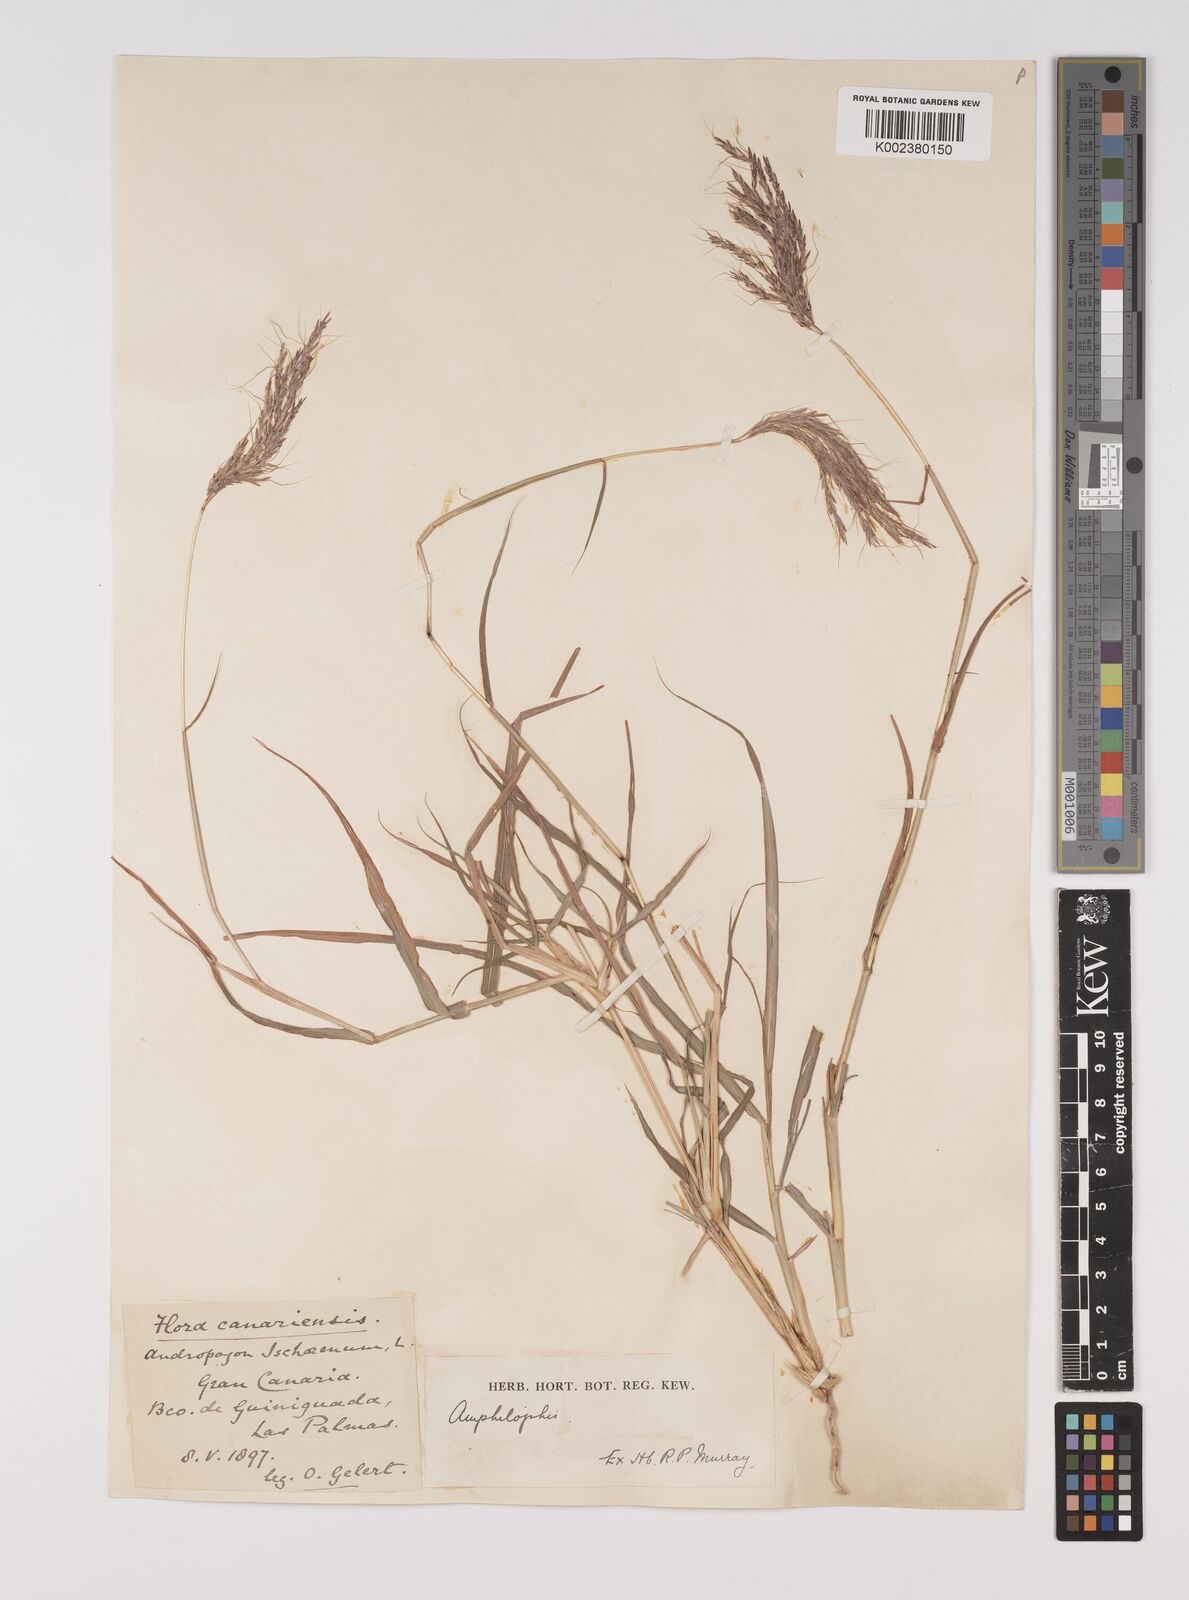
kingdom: Plantae
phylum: Tracheophyta
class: Liliopsida
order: Poales
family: Poaceae
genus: Bothriochloa
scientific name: Bothriochloa insculpta
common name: Creeping-bluegrass
